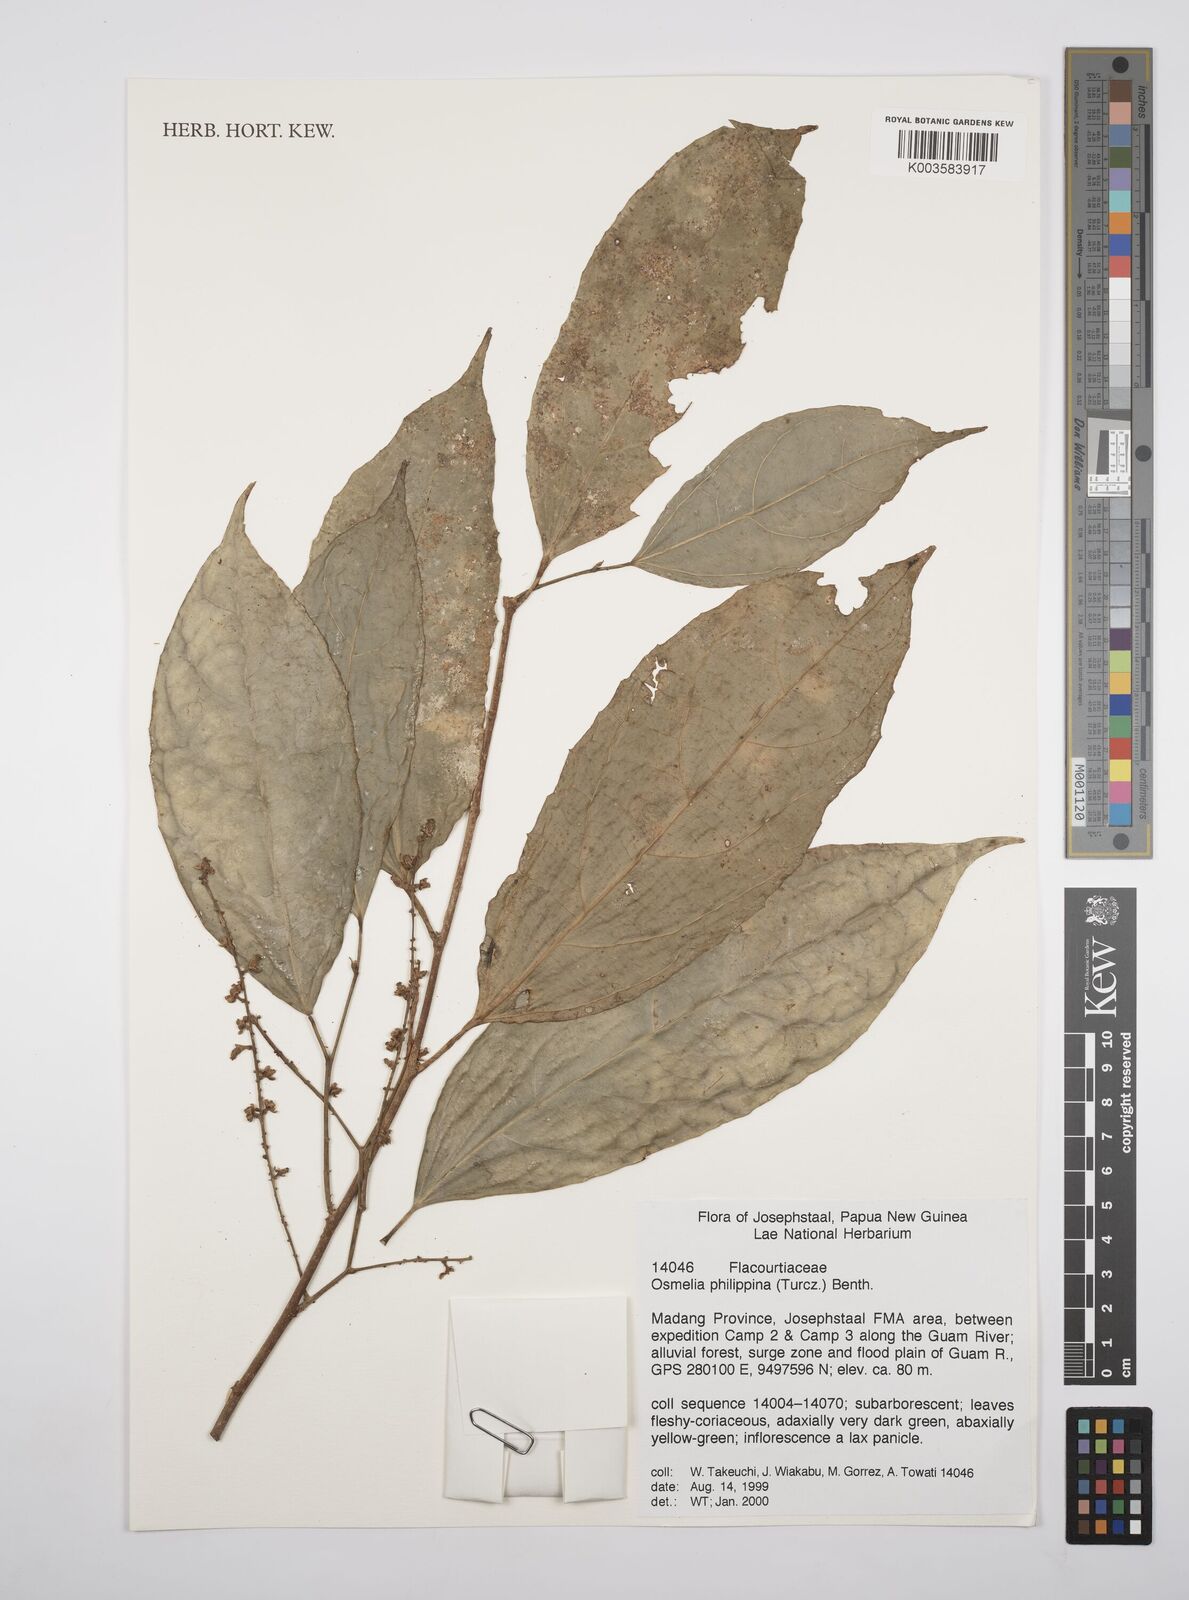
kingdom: Plantae
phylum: Tracheophyta
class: Magnoliopsida
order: Malpighiales
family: Salicaceae
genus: Osmelia
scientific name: Osmelia philippina
